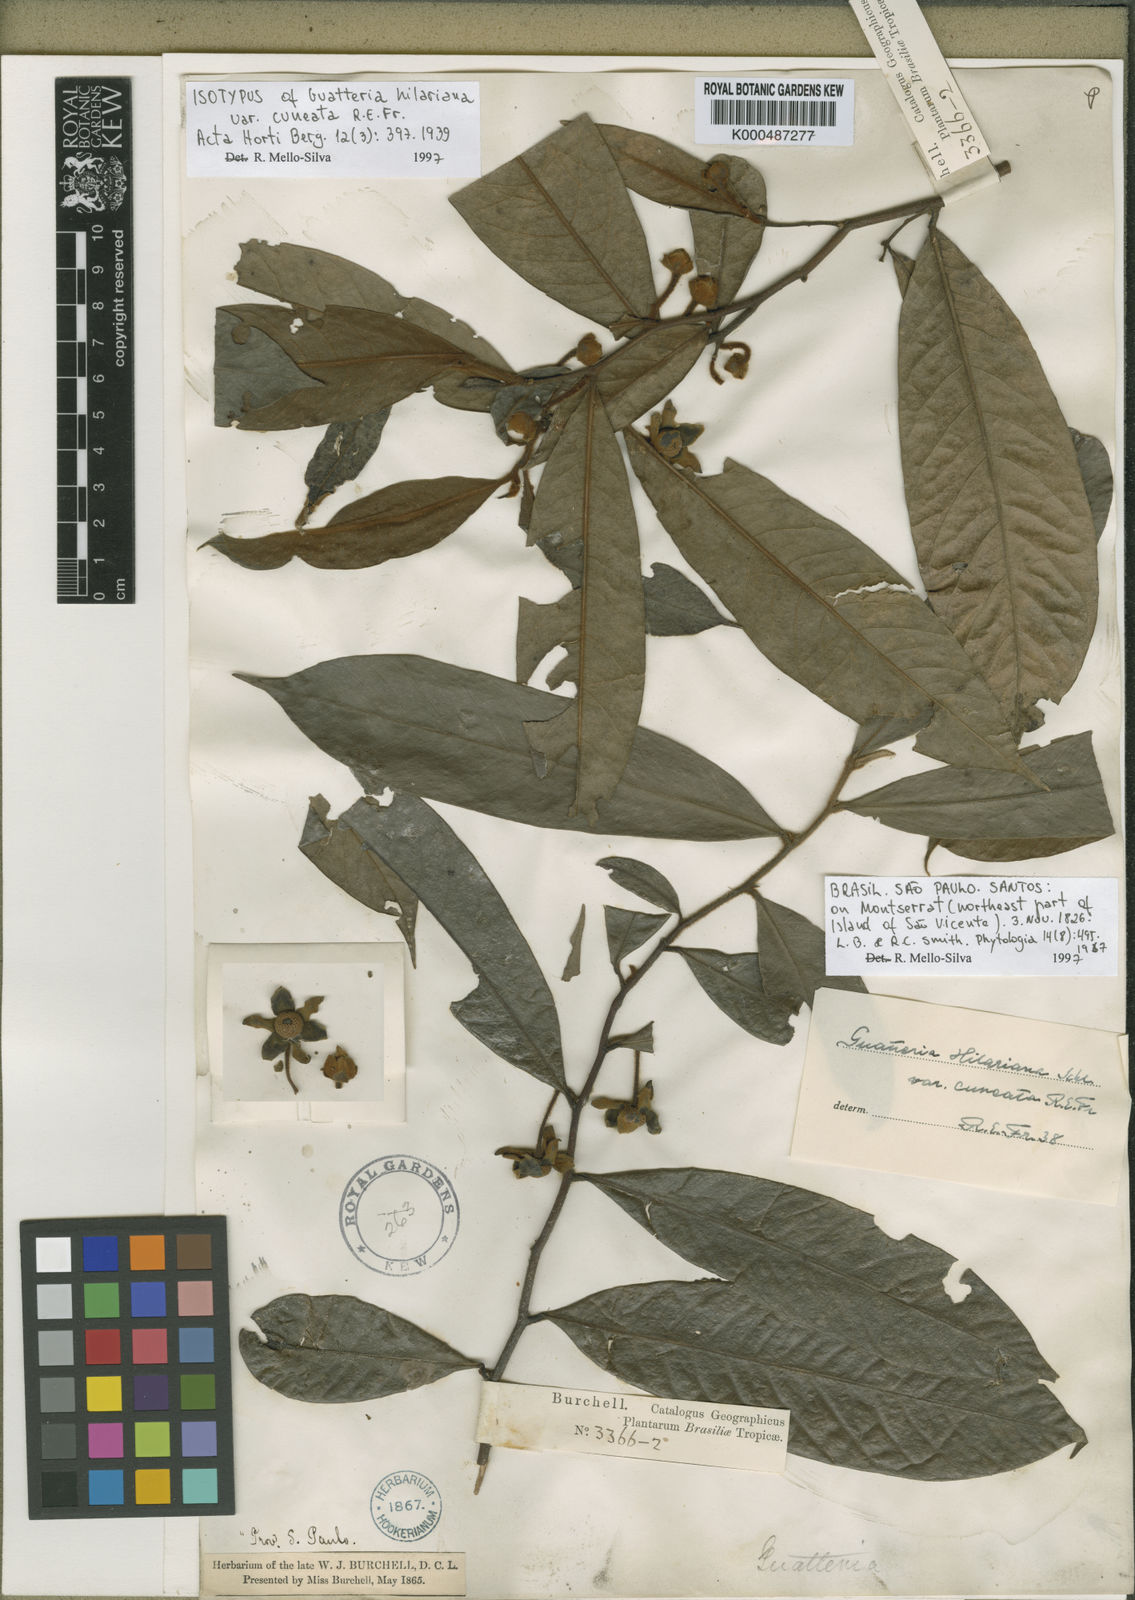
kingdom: Plantae
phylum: Tracheophyta
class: Magnoliopsida
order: Magnoliales
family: Annonaceae
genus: Guatteria
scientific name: Guatteria australis
